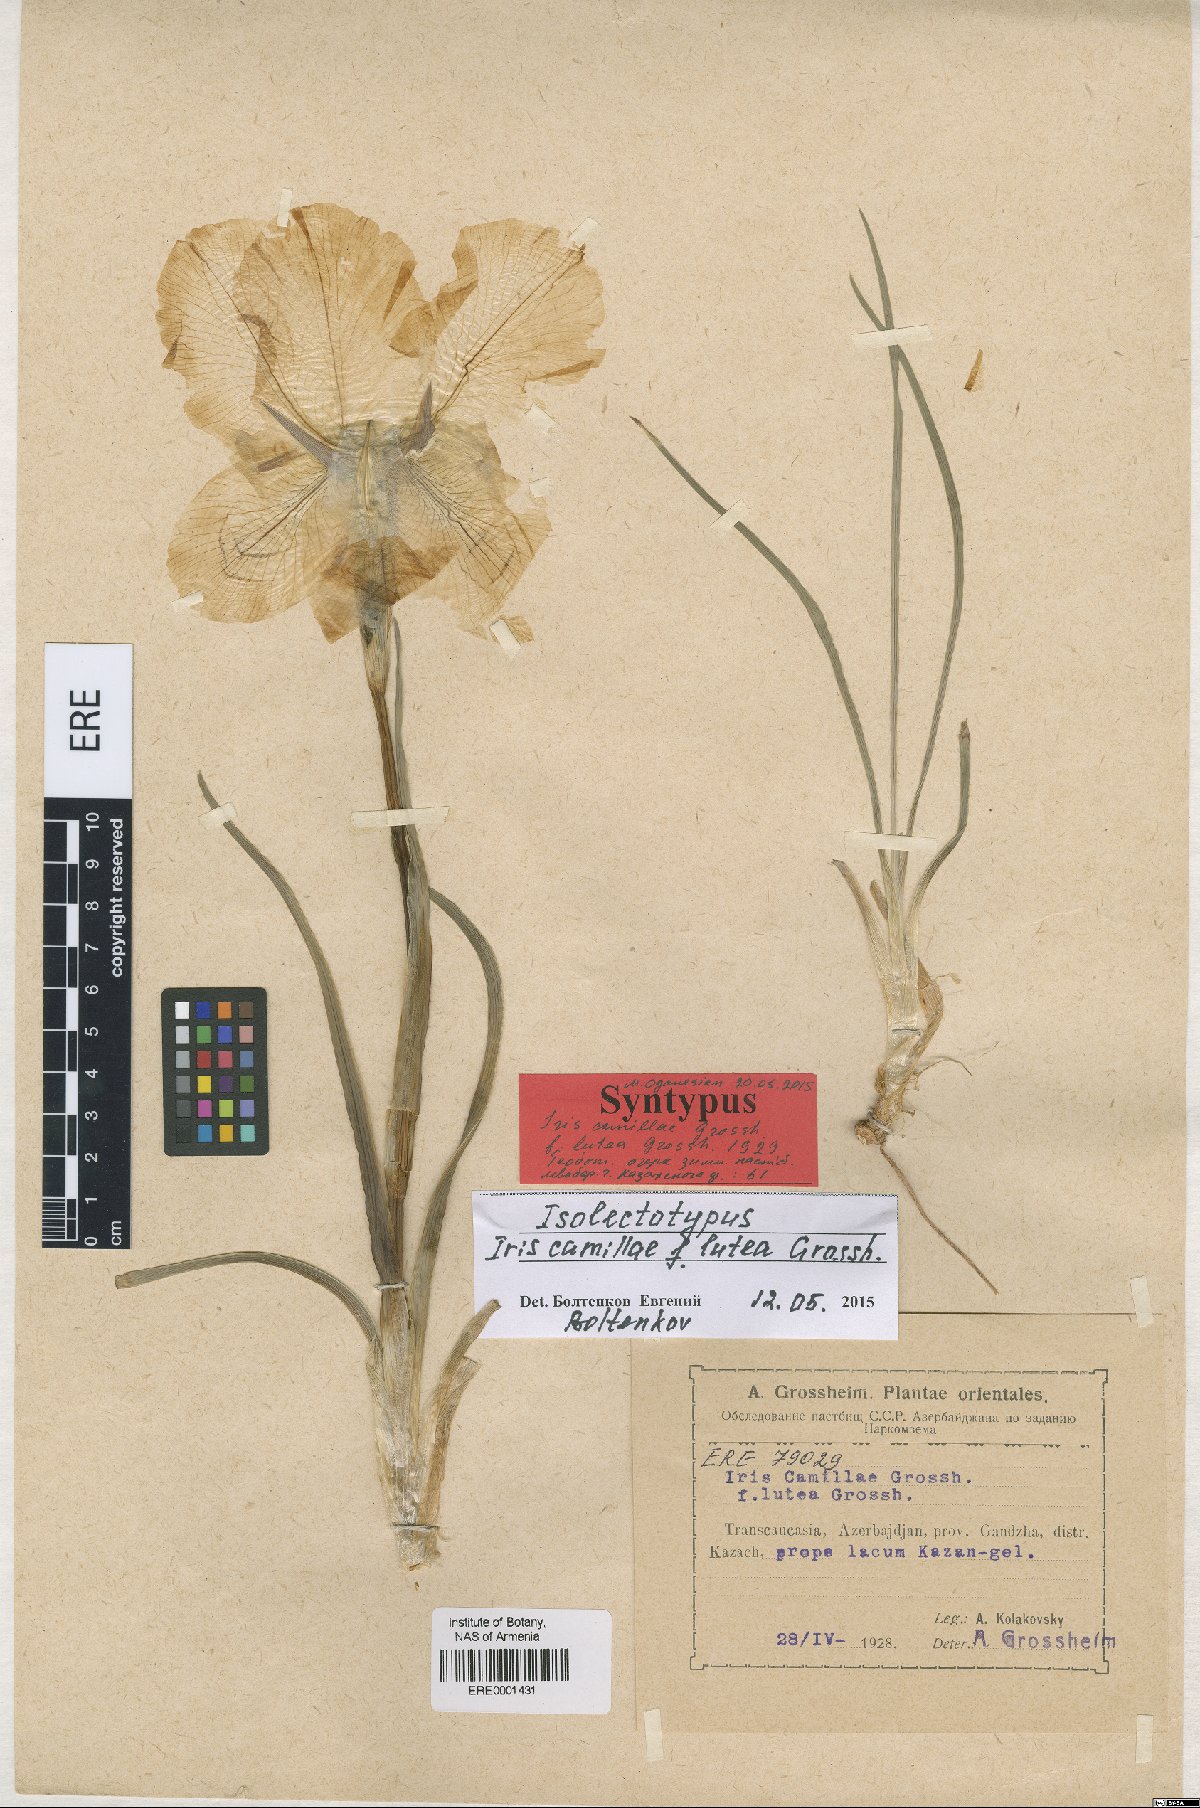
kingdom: Plantae
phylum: Tracheophyta
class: Liliopsida
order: Asparagales
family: Iridaceae
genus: Iris
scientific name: Iris camillae
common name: Kamilla's iris
